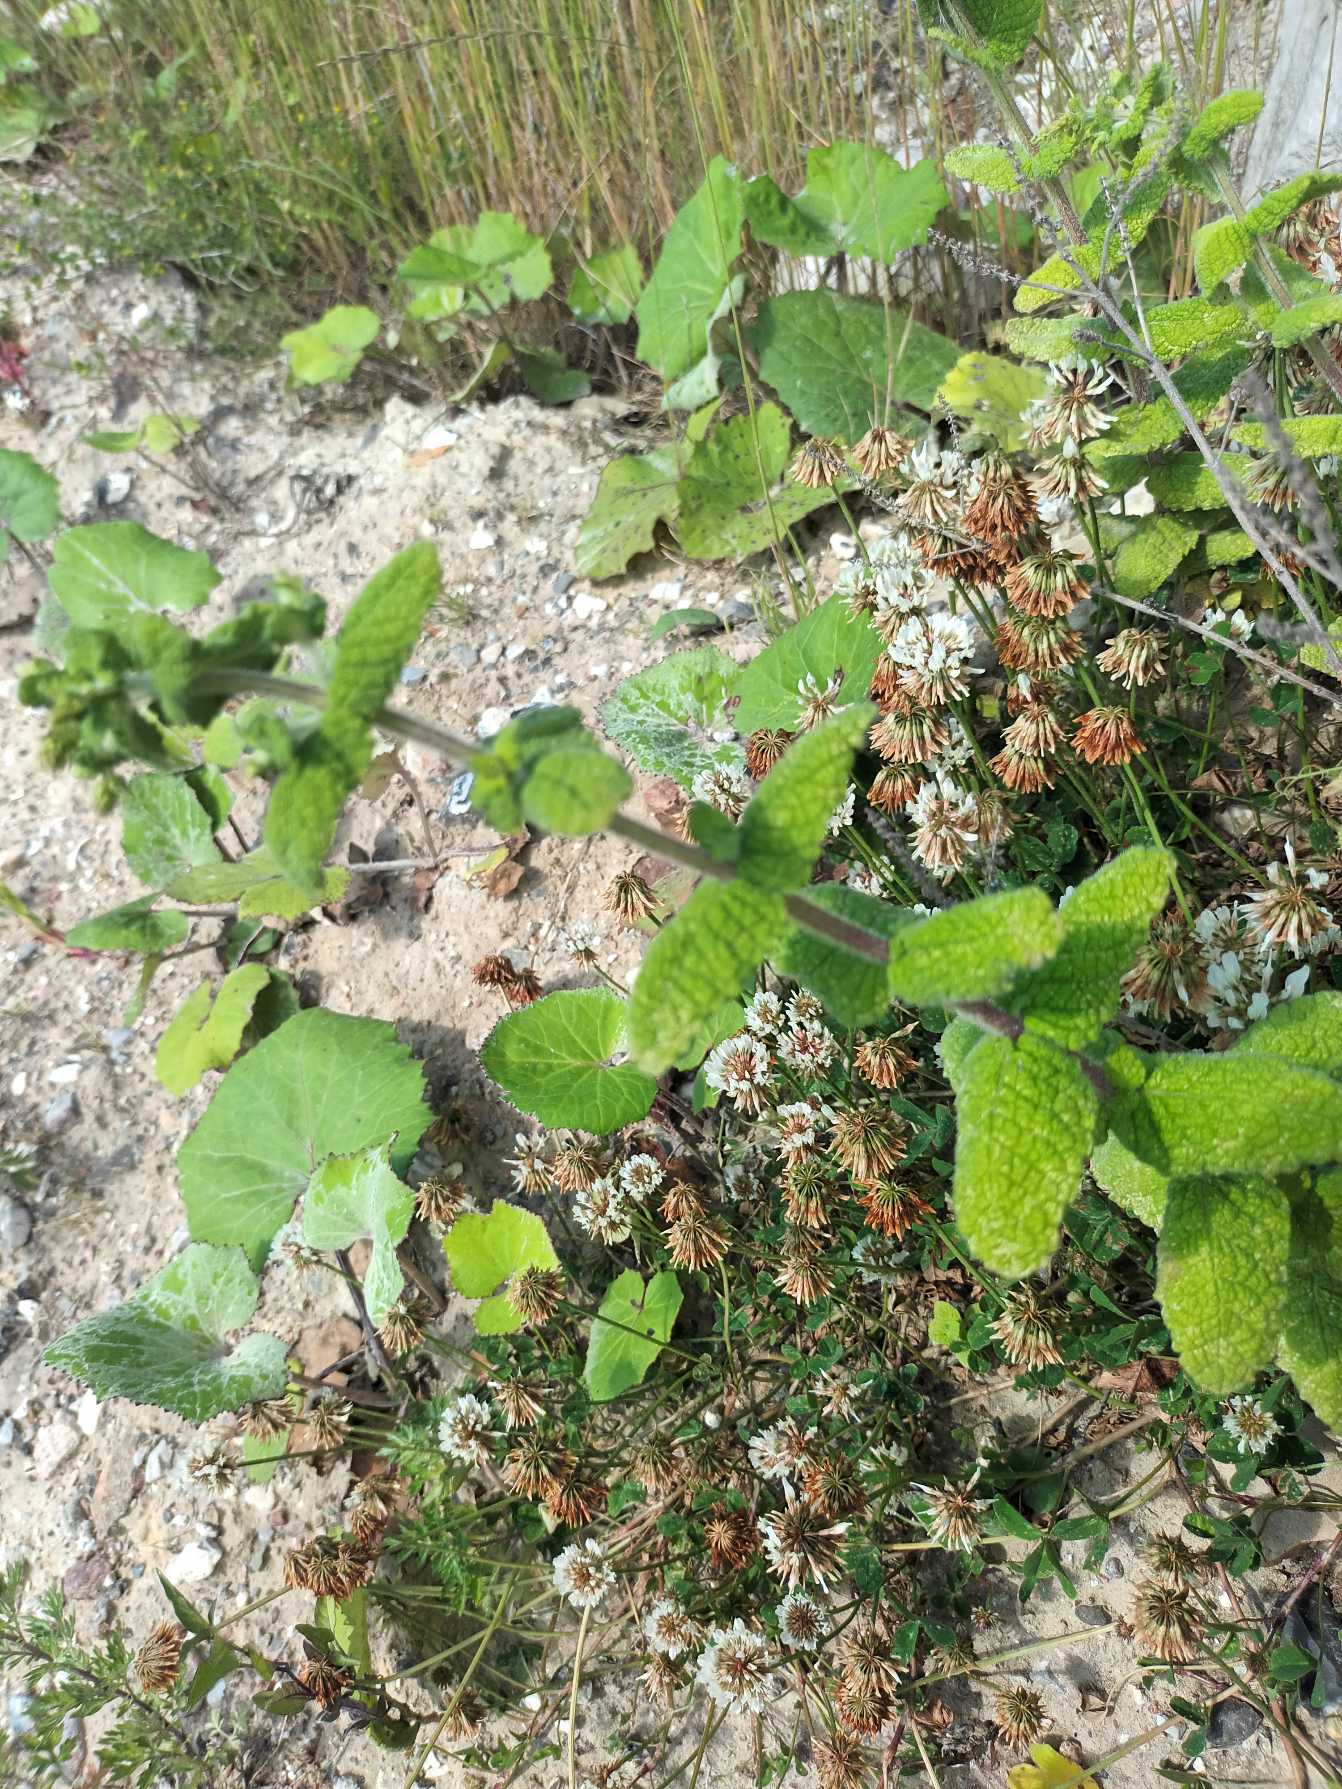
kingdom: Plantae
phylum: Tracheophyta
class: Magnoliopsida
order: Lamiales
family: Lamiaceae
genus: Mentha
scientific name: Mentha suaveolens
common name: Rundbladet mynte
